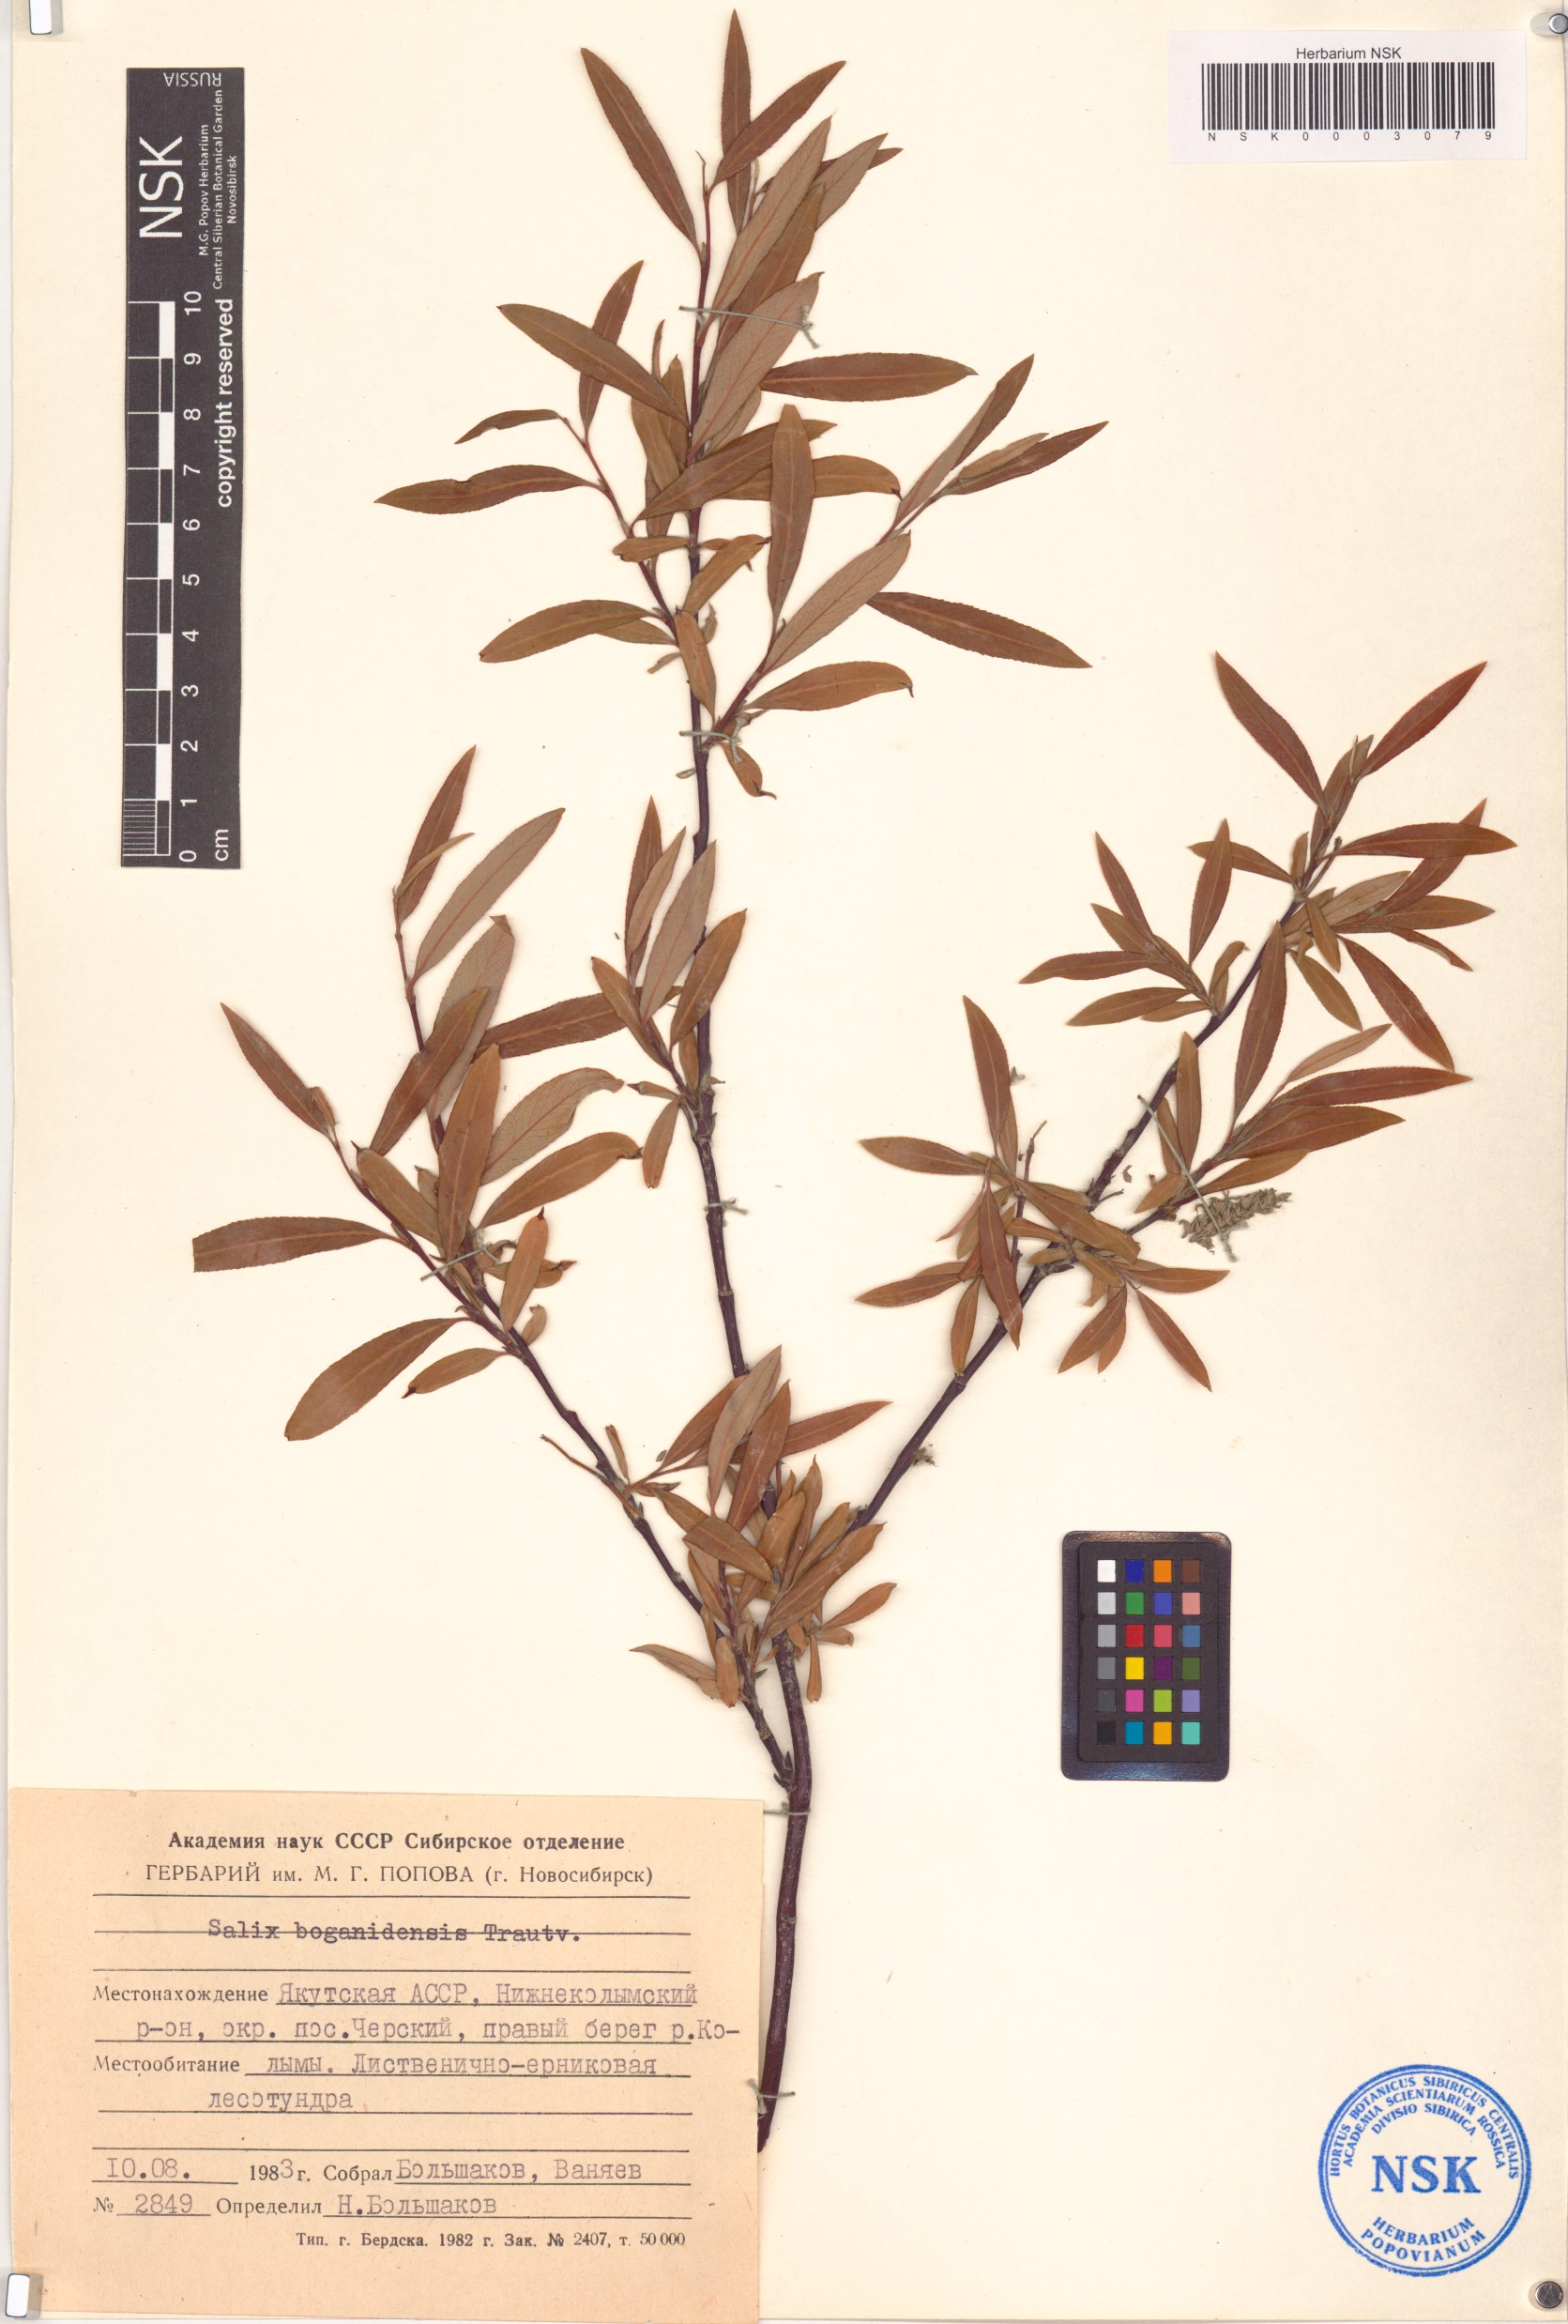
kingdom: Plantae
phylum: Tracheophyta
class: Magnoliopsida
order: Malpighiales
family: Salicaceae
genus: Salix
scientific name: Salix boganidensis
